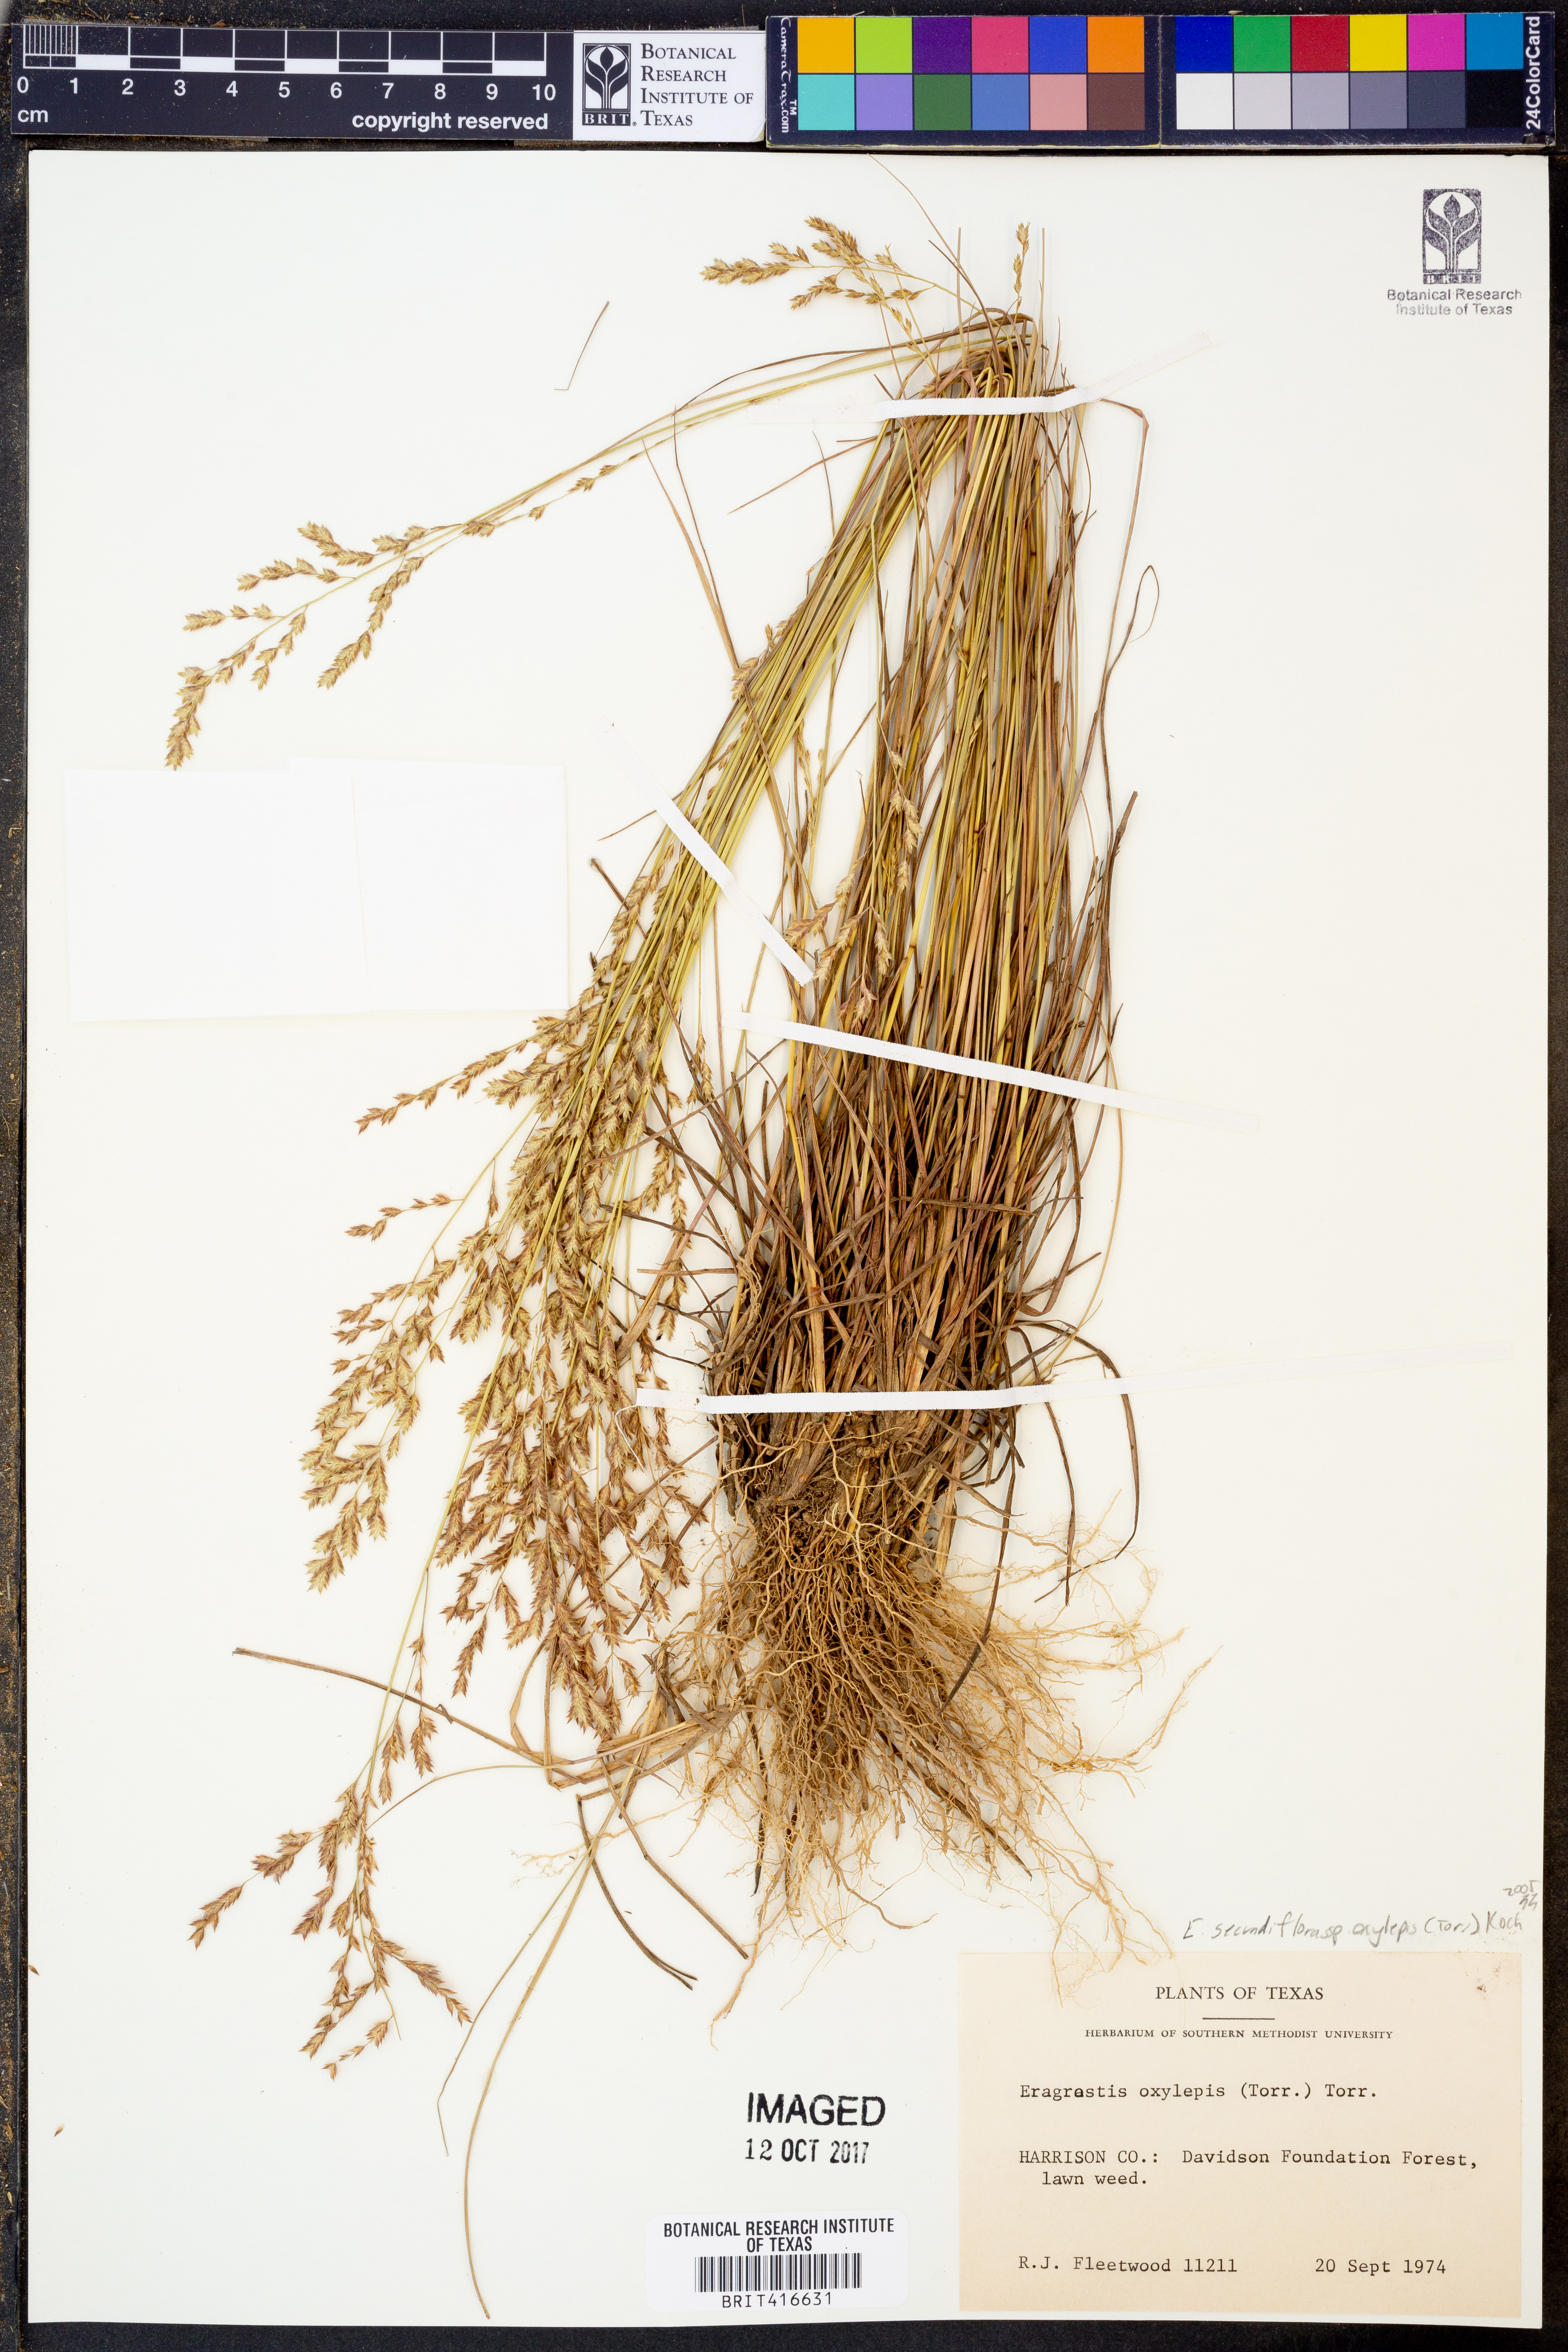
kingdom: Plantae
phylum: Tracheophyta
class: Liliopsida
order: Poales
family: Poaceae
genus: Eragrostis
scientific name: Eragrostis secundiflora
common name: Red love grass
